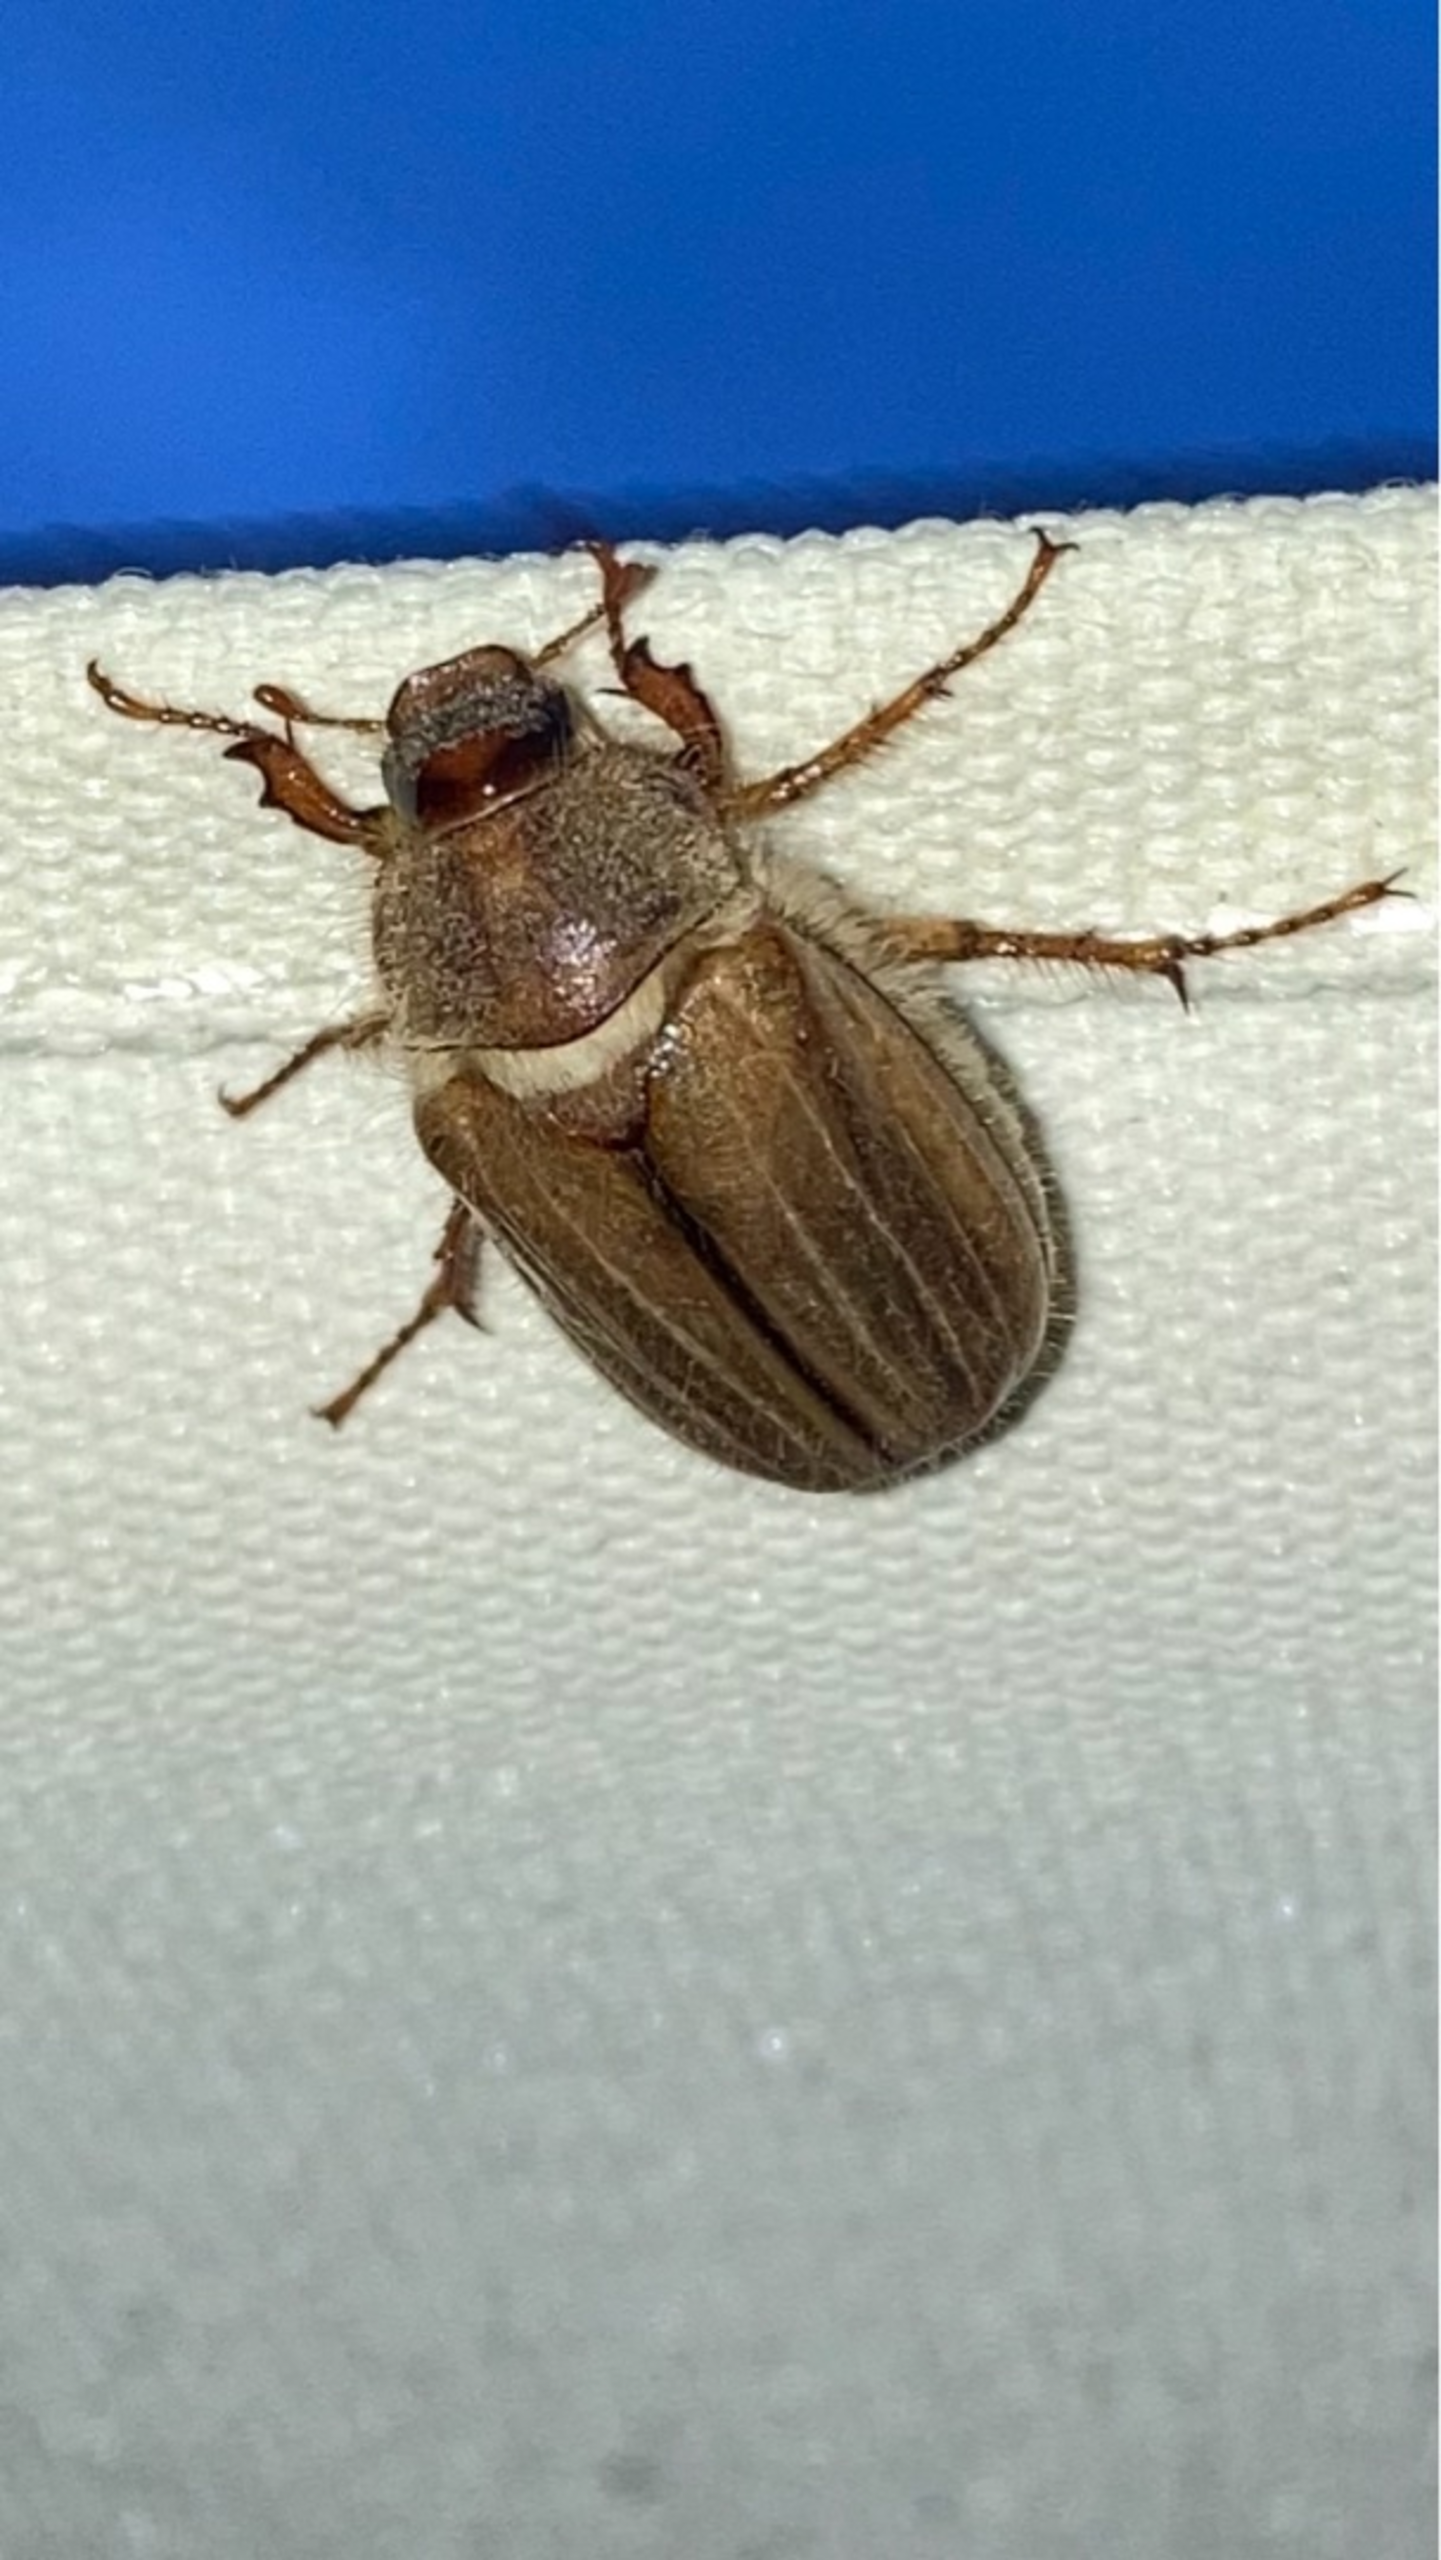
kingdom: Animalia
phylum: Arthropoda
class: Insecta
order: Coleoptera
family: Scarabaeidae
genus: Amphimallon
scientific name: Amphimallon solstitiale
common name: Sankthansoldenborre
